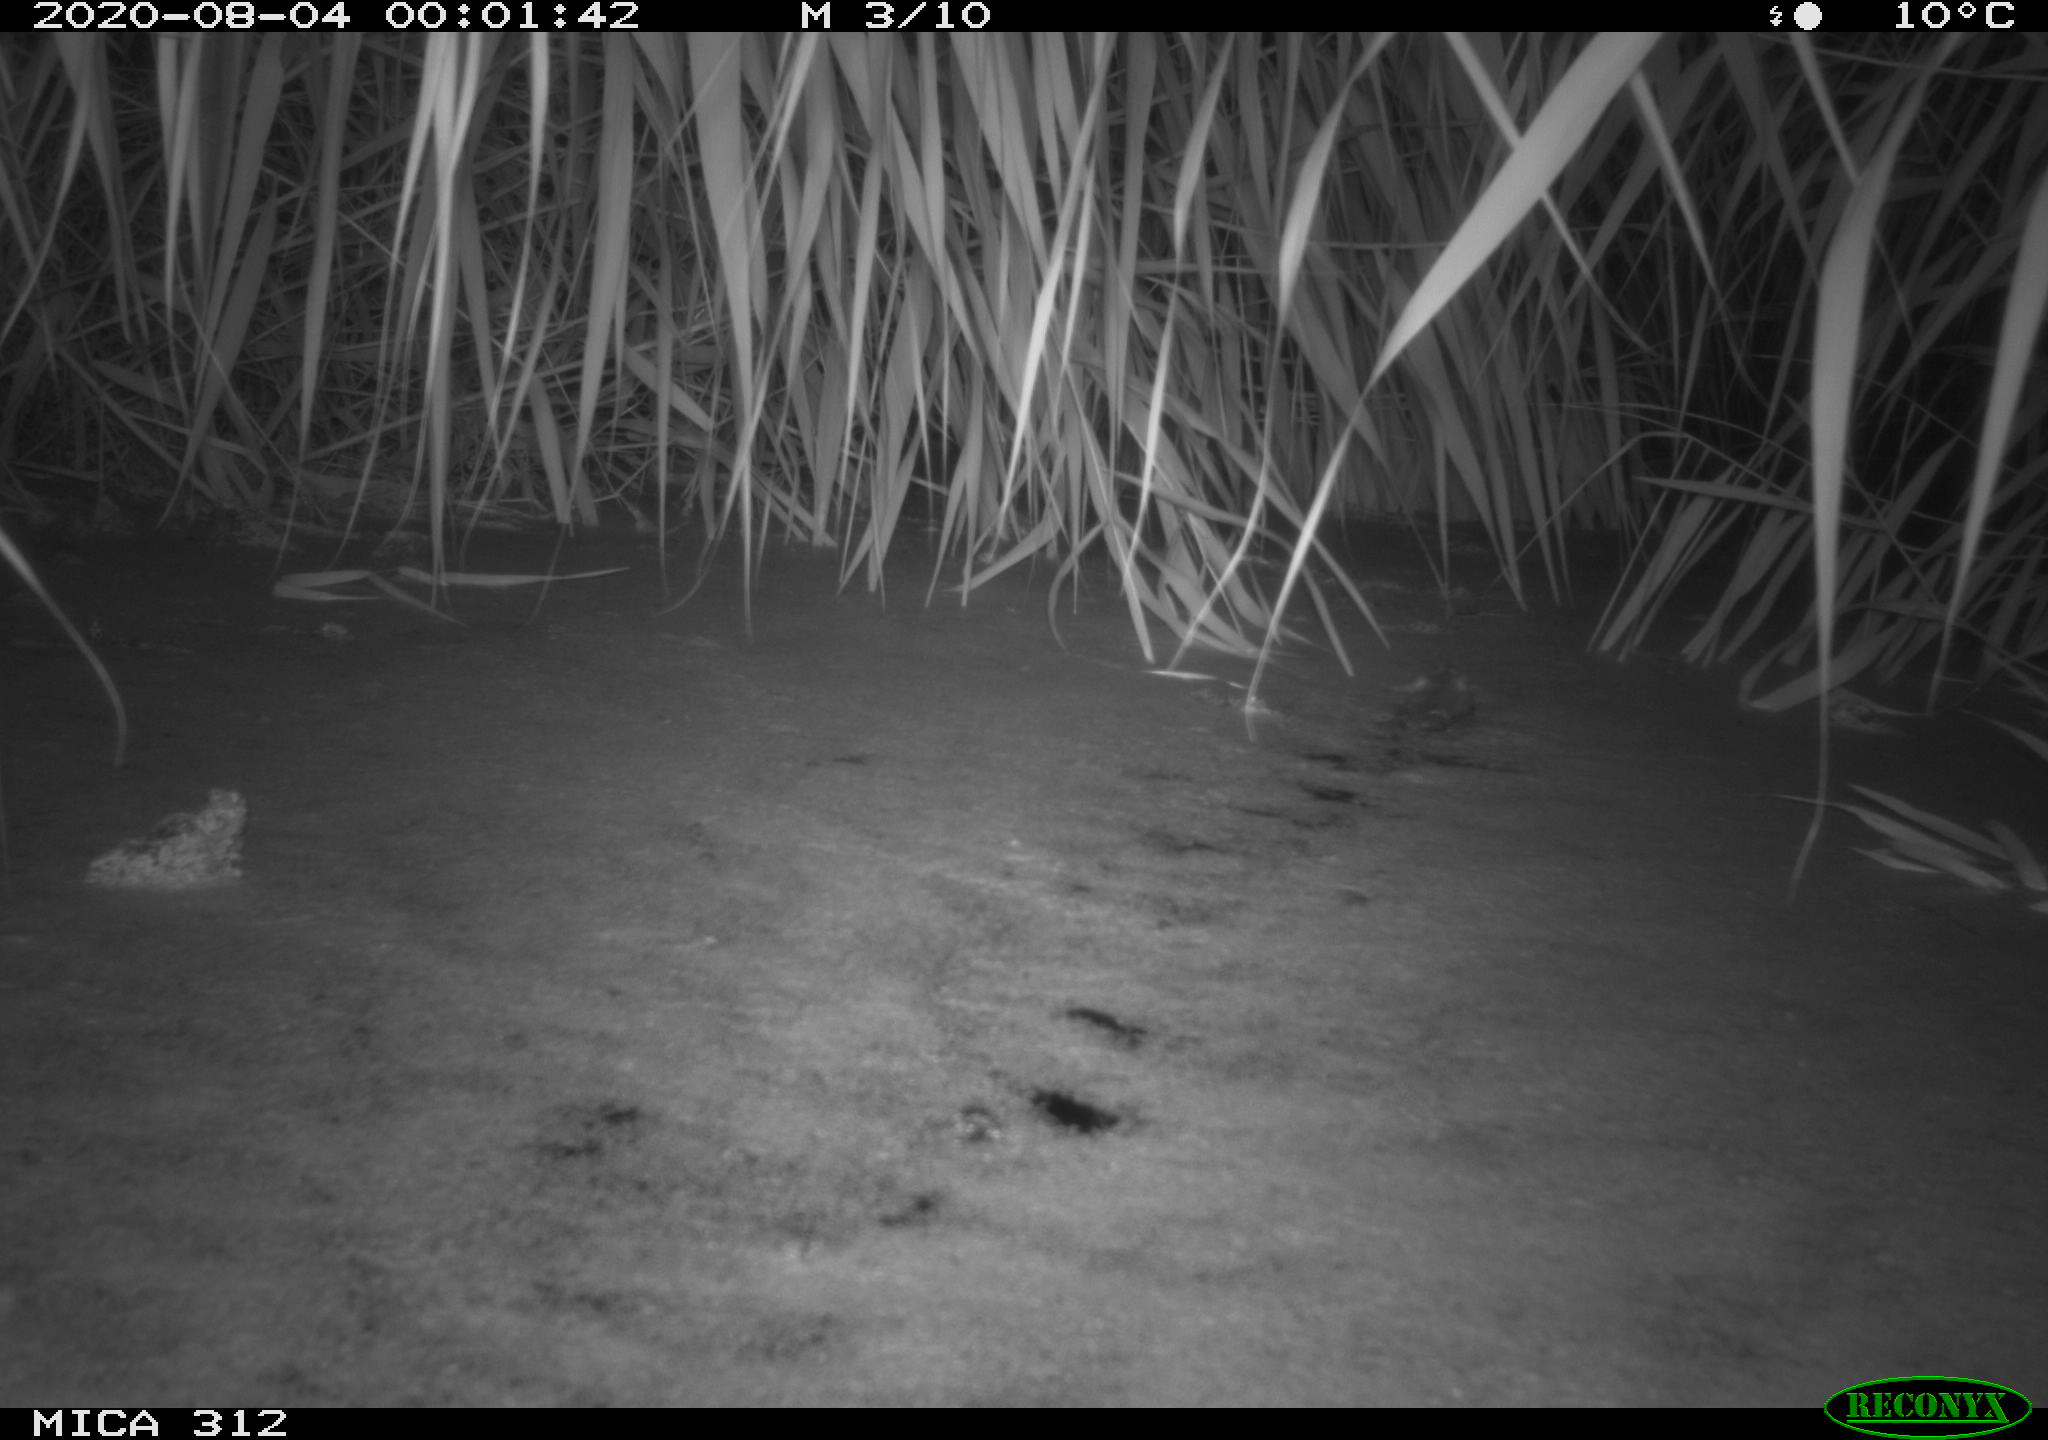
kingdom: Animalia
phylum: Chordata
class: Mammalia
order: Rodentia
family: Muridae
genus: Rattus
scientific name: Rattus norvegicus
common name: Brown rat
